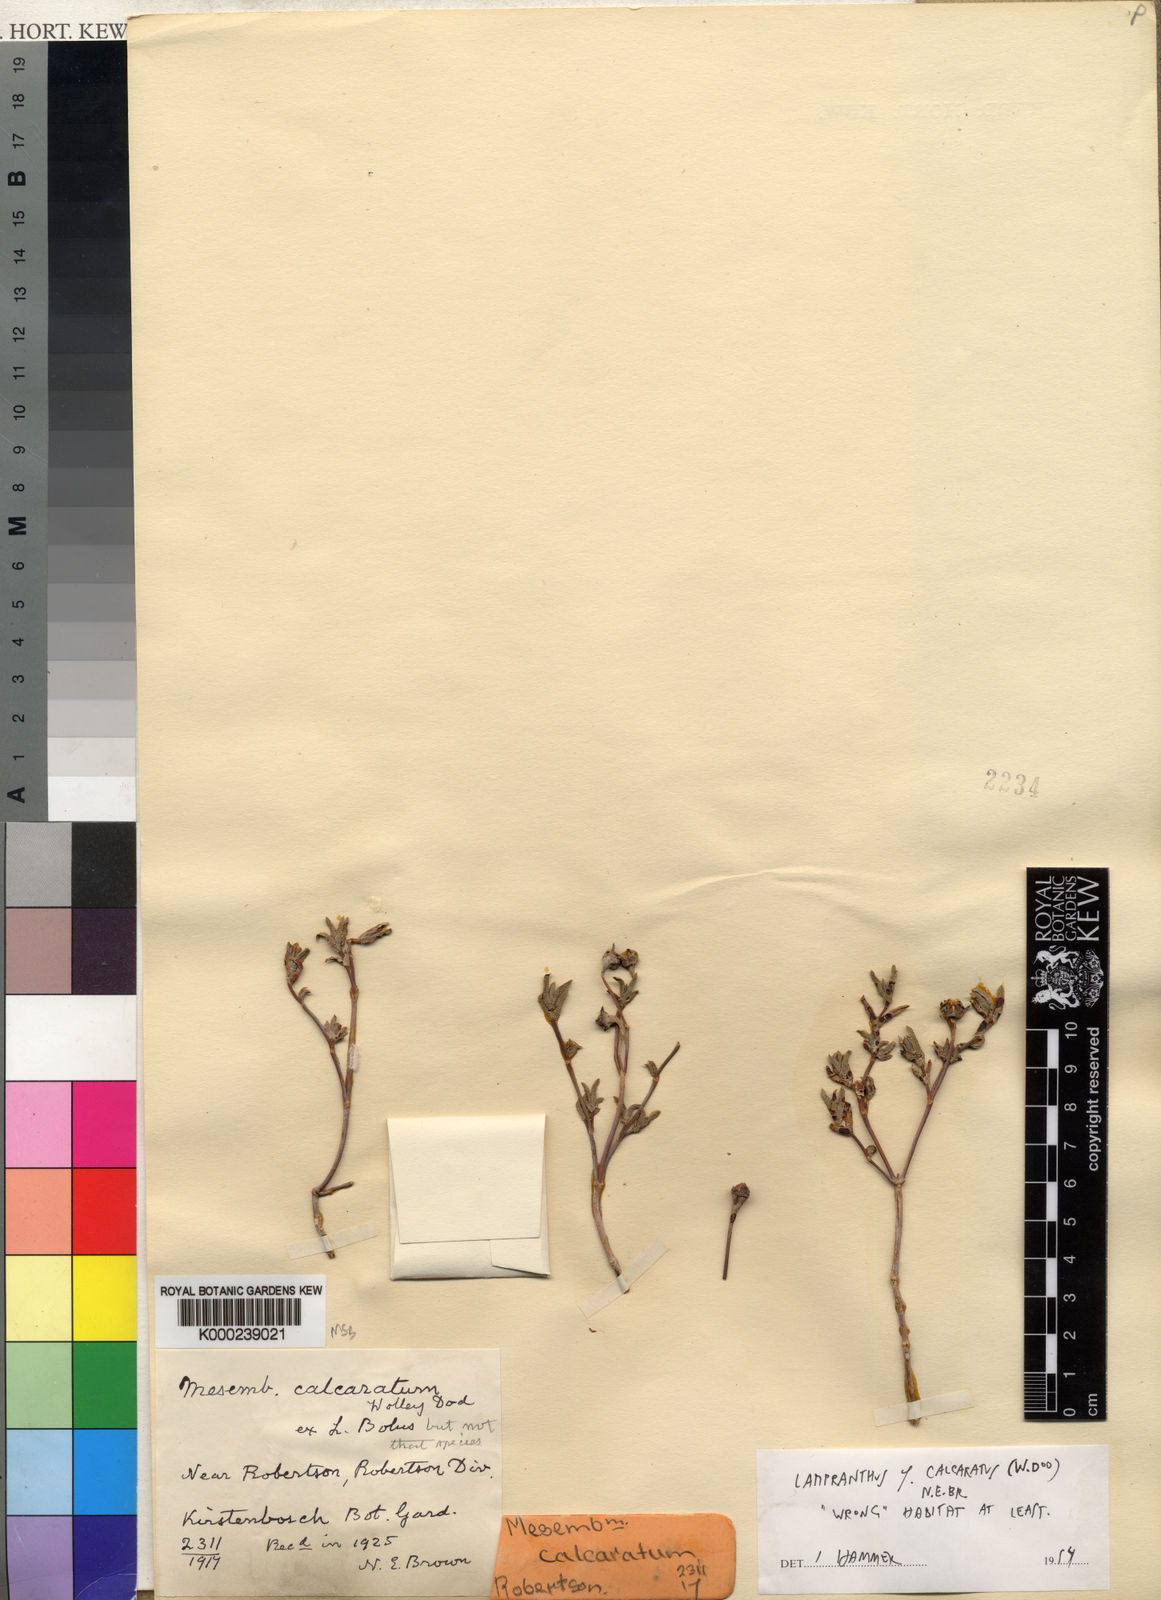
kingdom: Plantae
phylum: Tracheophyta
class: Magnoliopsida
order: Caryophyllales
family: Aizoaceae
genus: Lampranthus
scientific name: Lampranthus calcaratus
